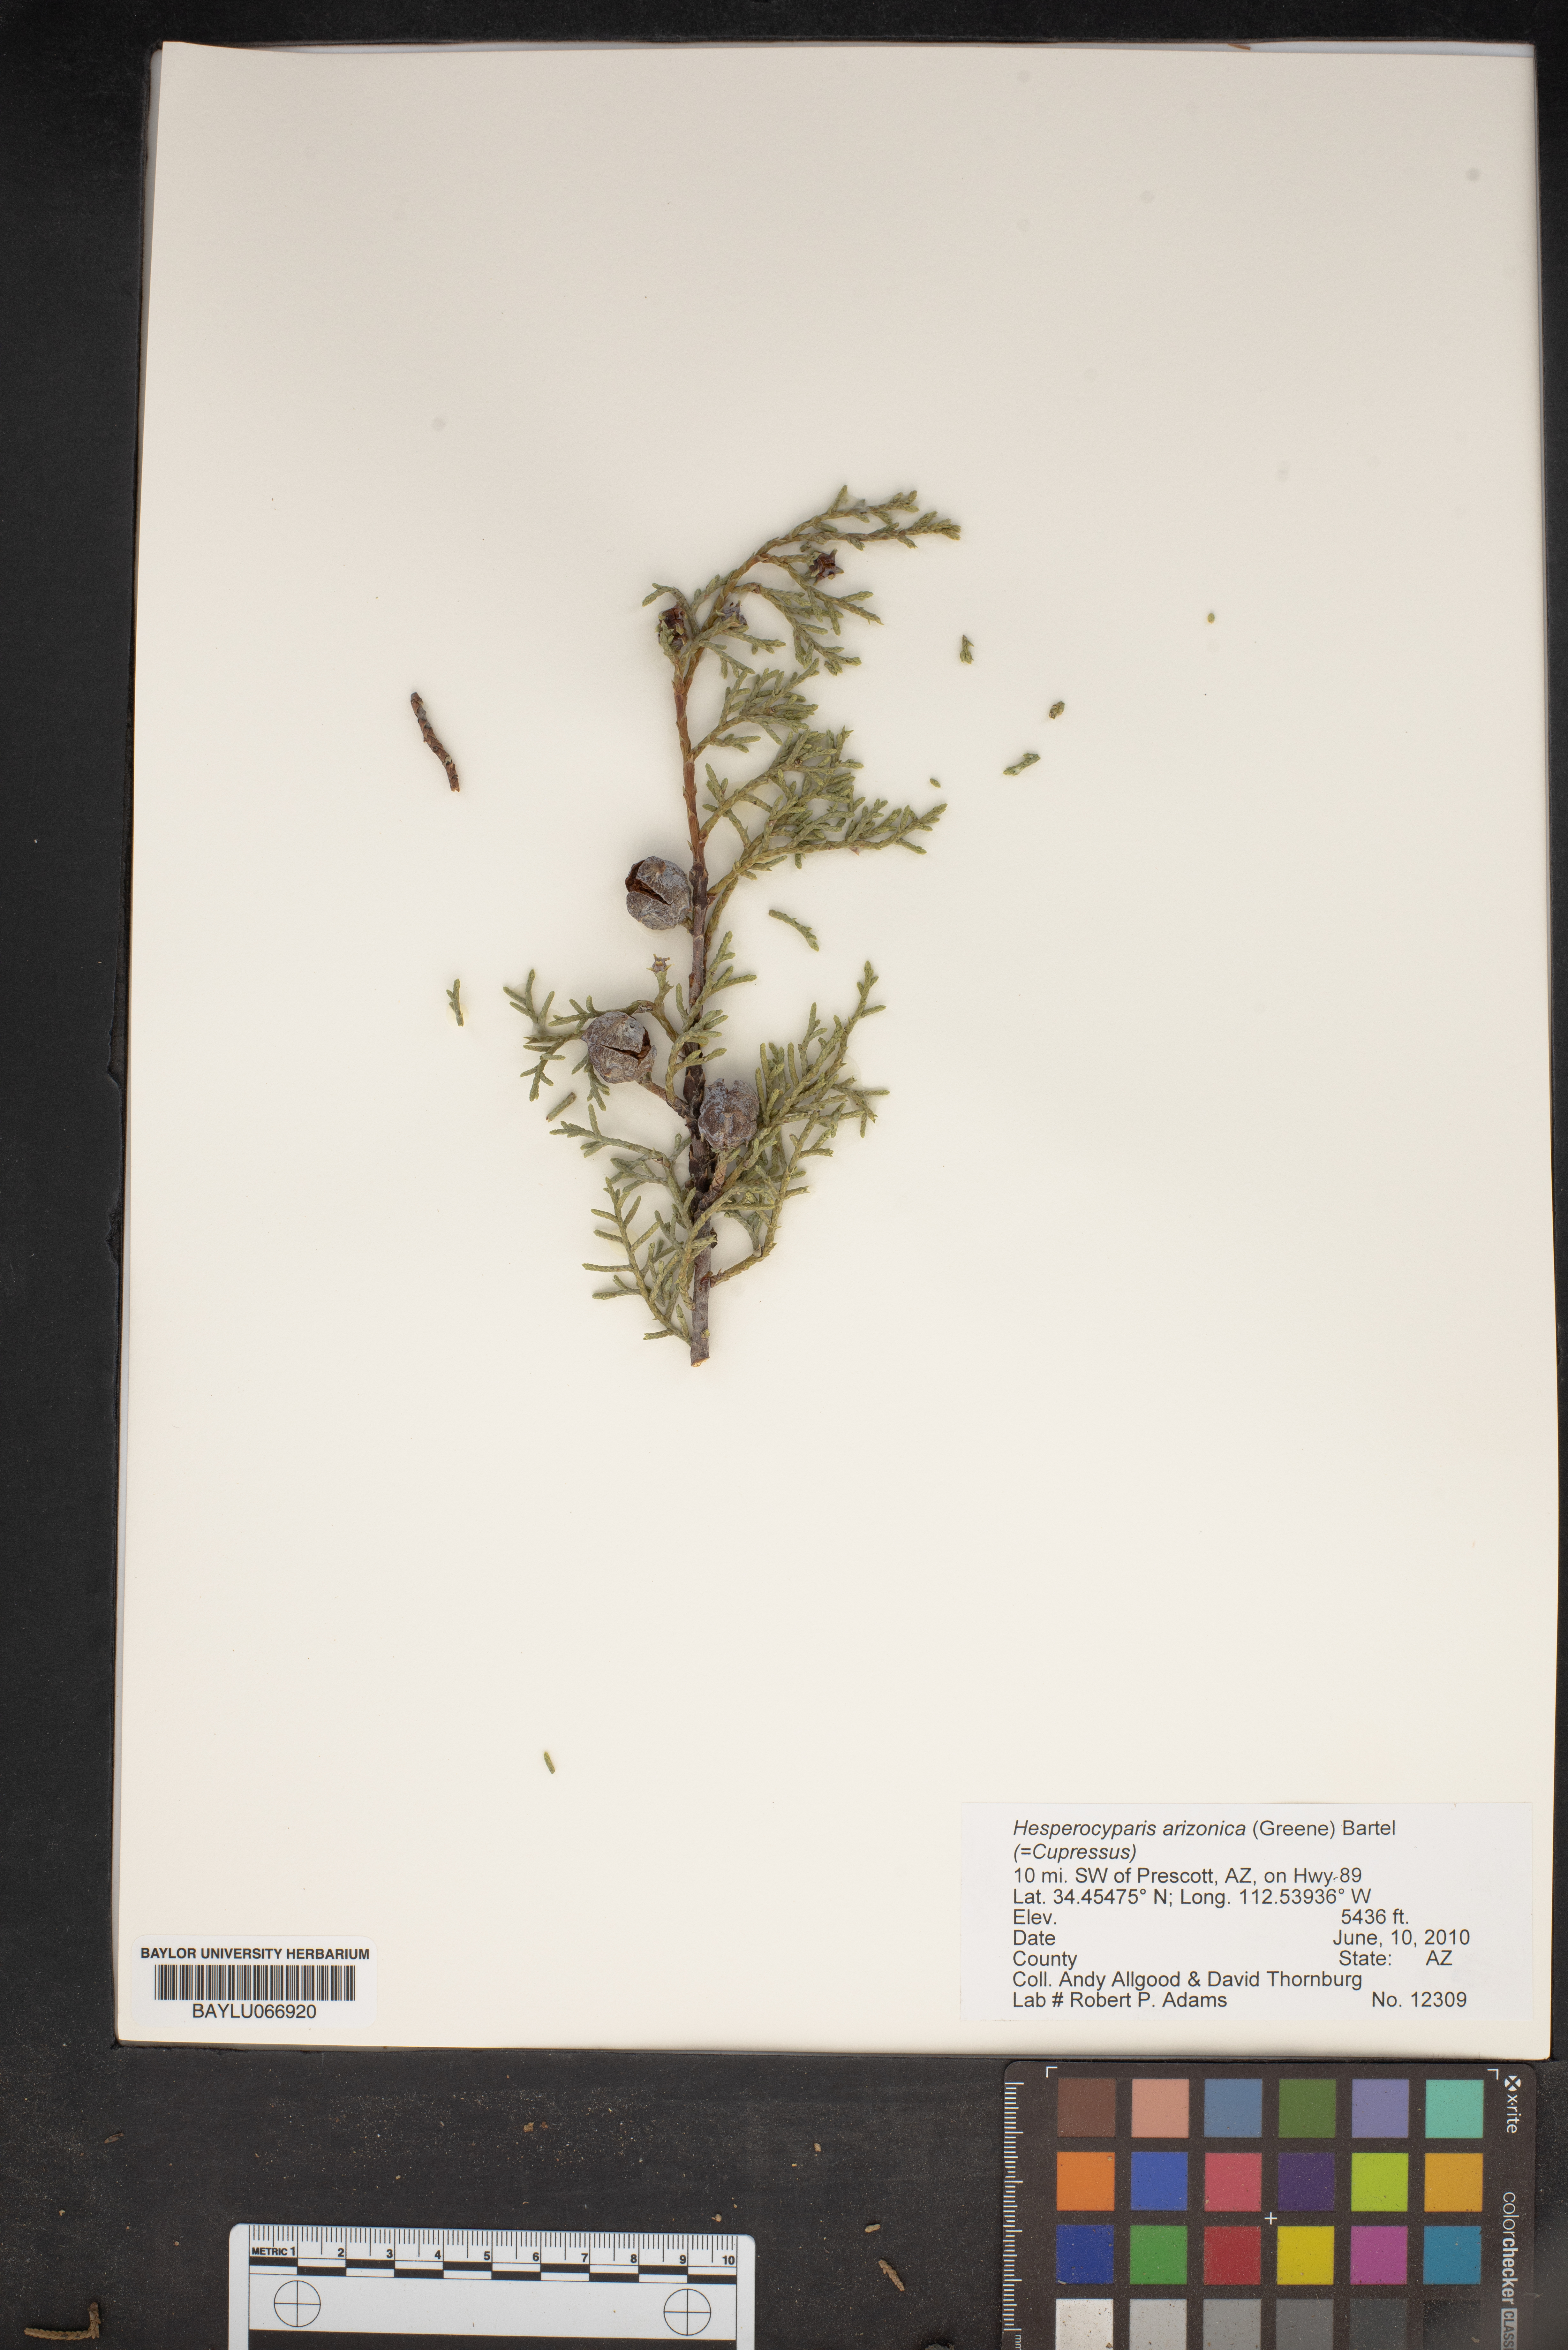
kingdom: Plantae
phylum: Tracheophyta
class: Pinopsida
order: Pinales
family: Cupressaceae
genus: Cupressus
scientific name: Cupressus arizonica
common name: Arizona cypress
